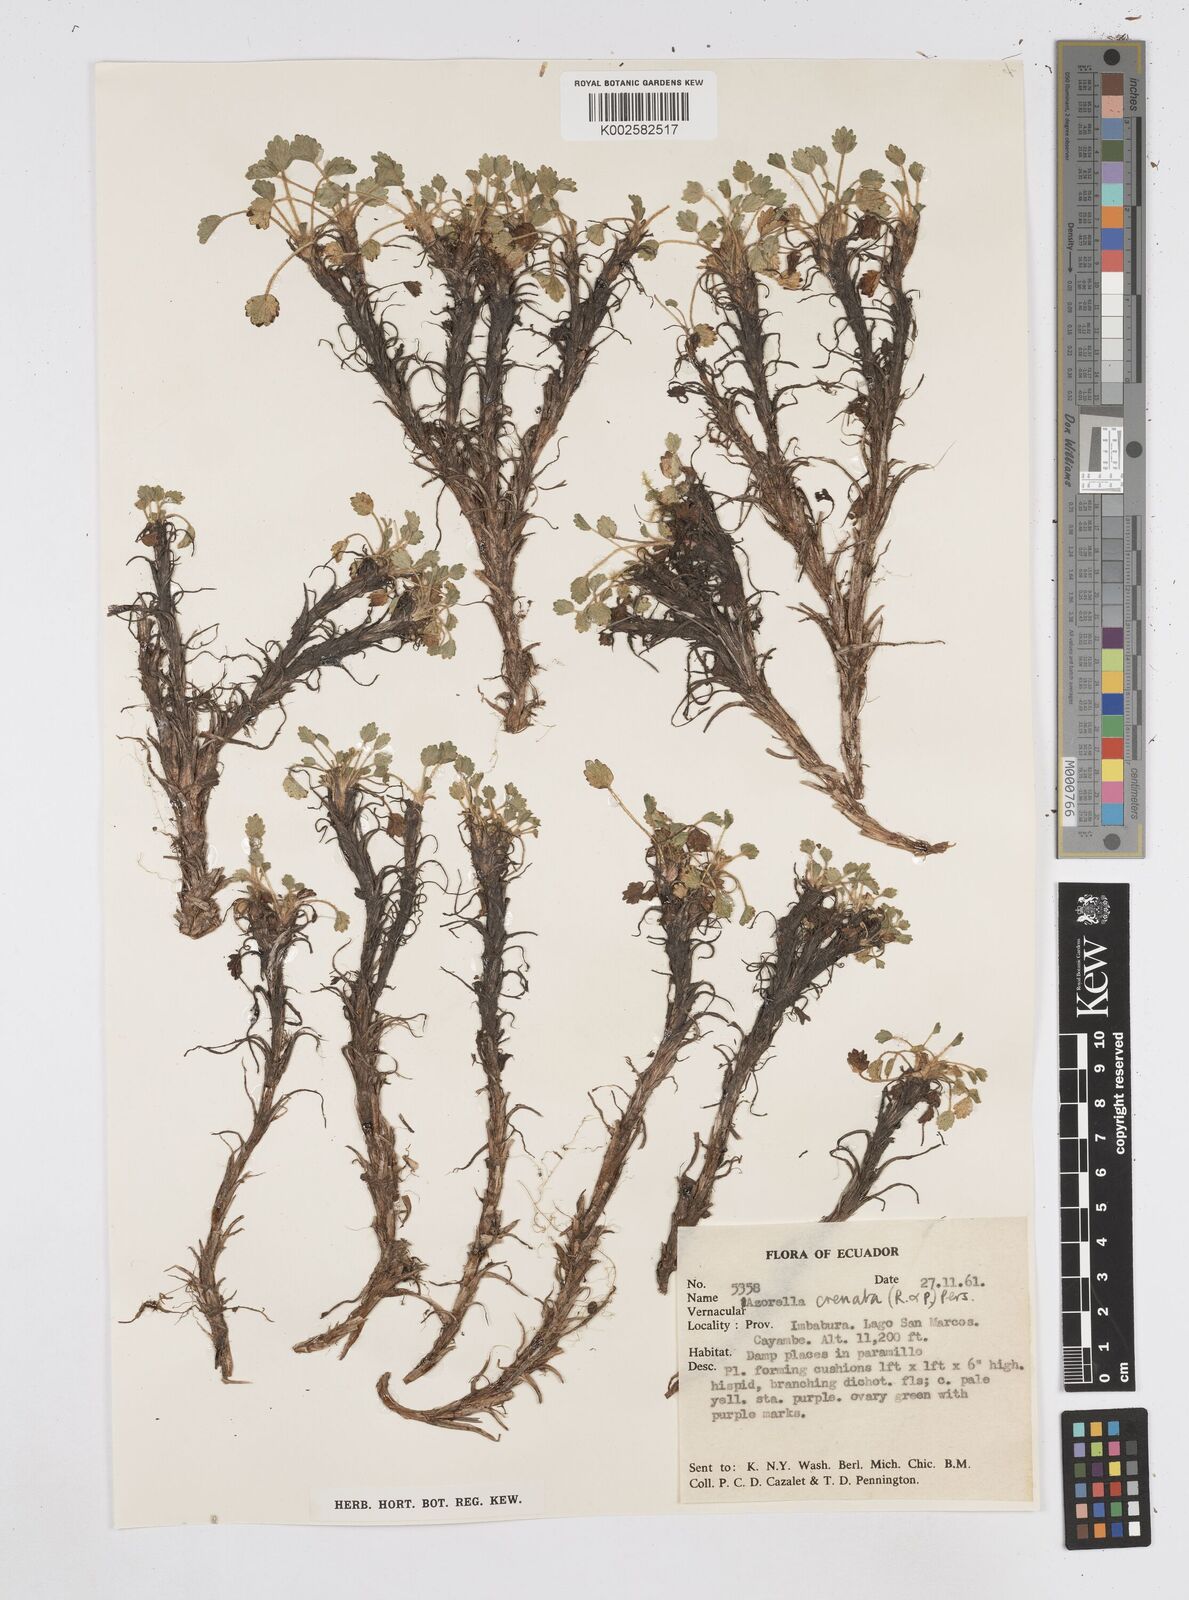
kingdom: Plantae
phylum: Tracheophyta
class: Magnoliopsida
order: Apiales
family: Apiaceae
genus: Azorella
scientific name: Azorella crenata
